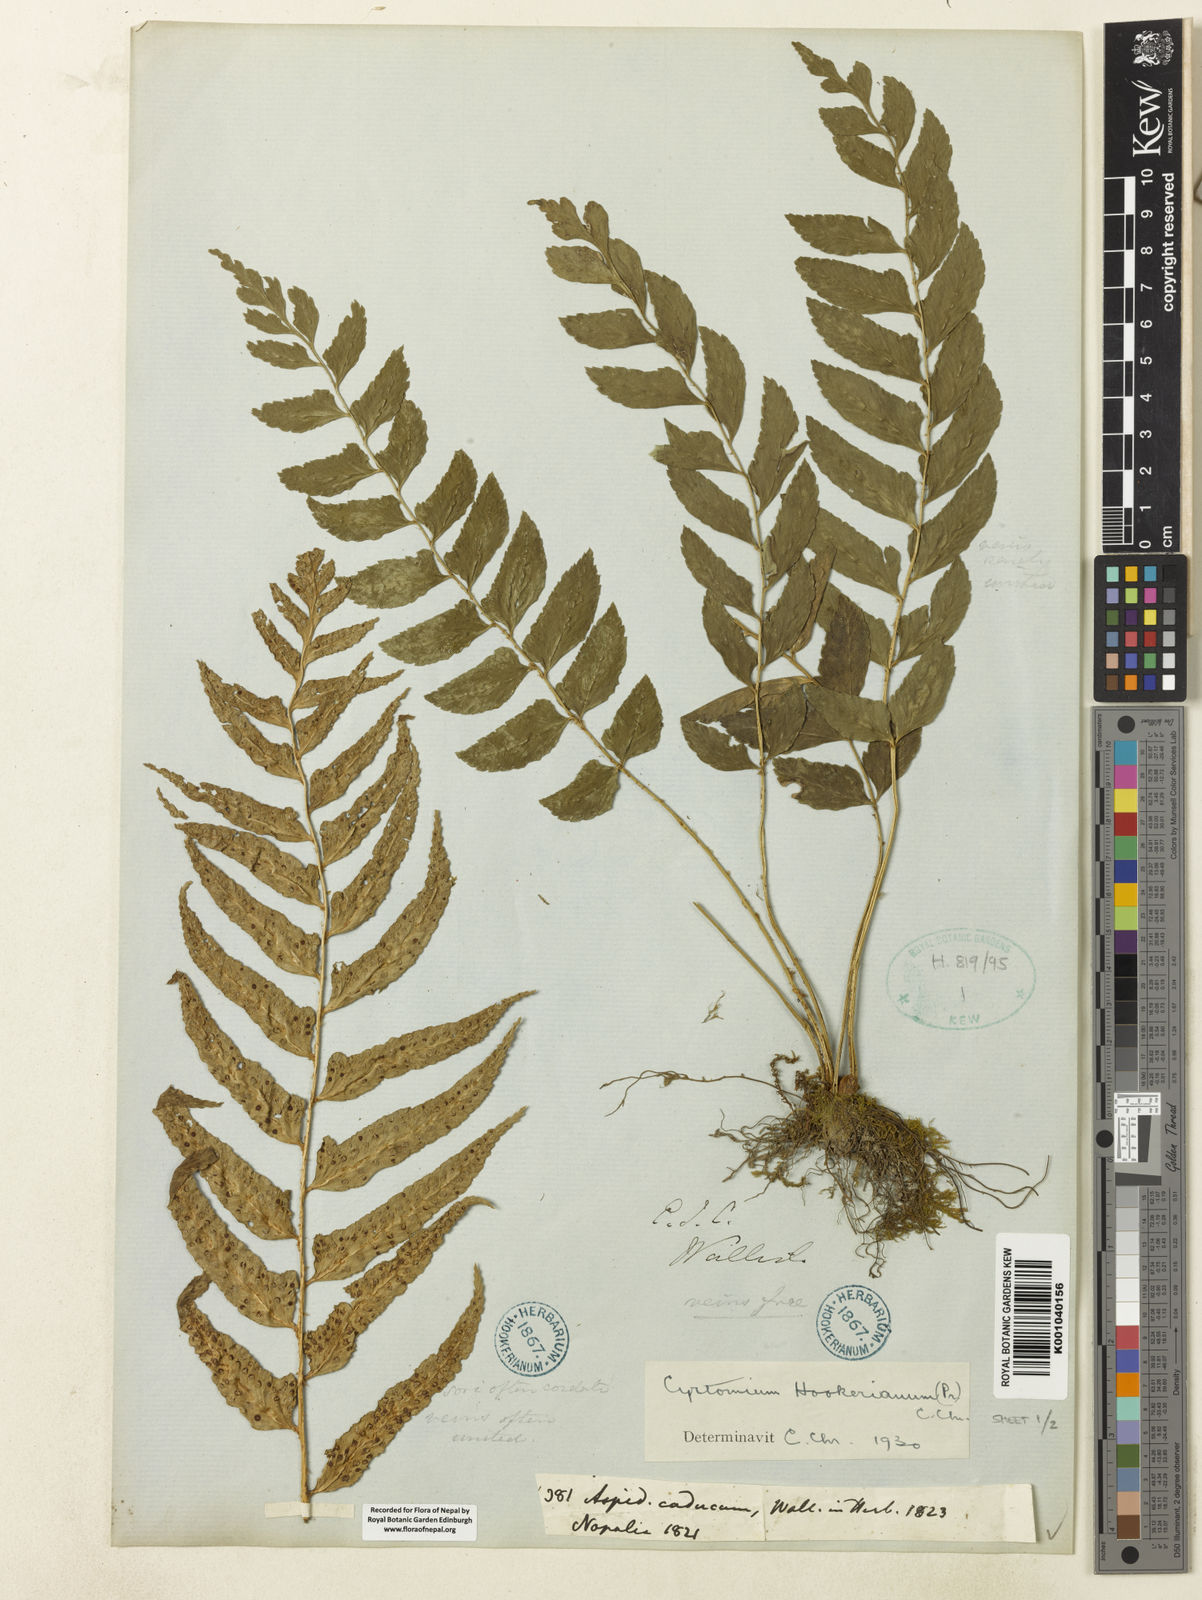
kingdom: Plantae
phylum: Tracheophyta
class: Polypodiopsida
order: Polypodiales
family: Dryopteridaceae
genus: Polystichum
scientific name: Polystichum hookerianum
